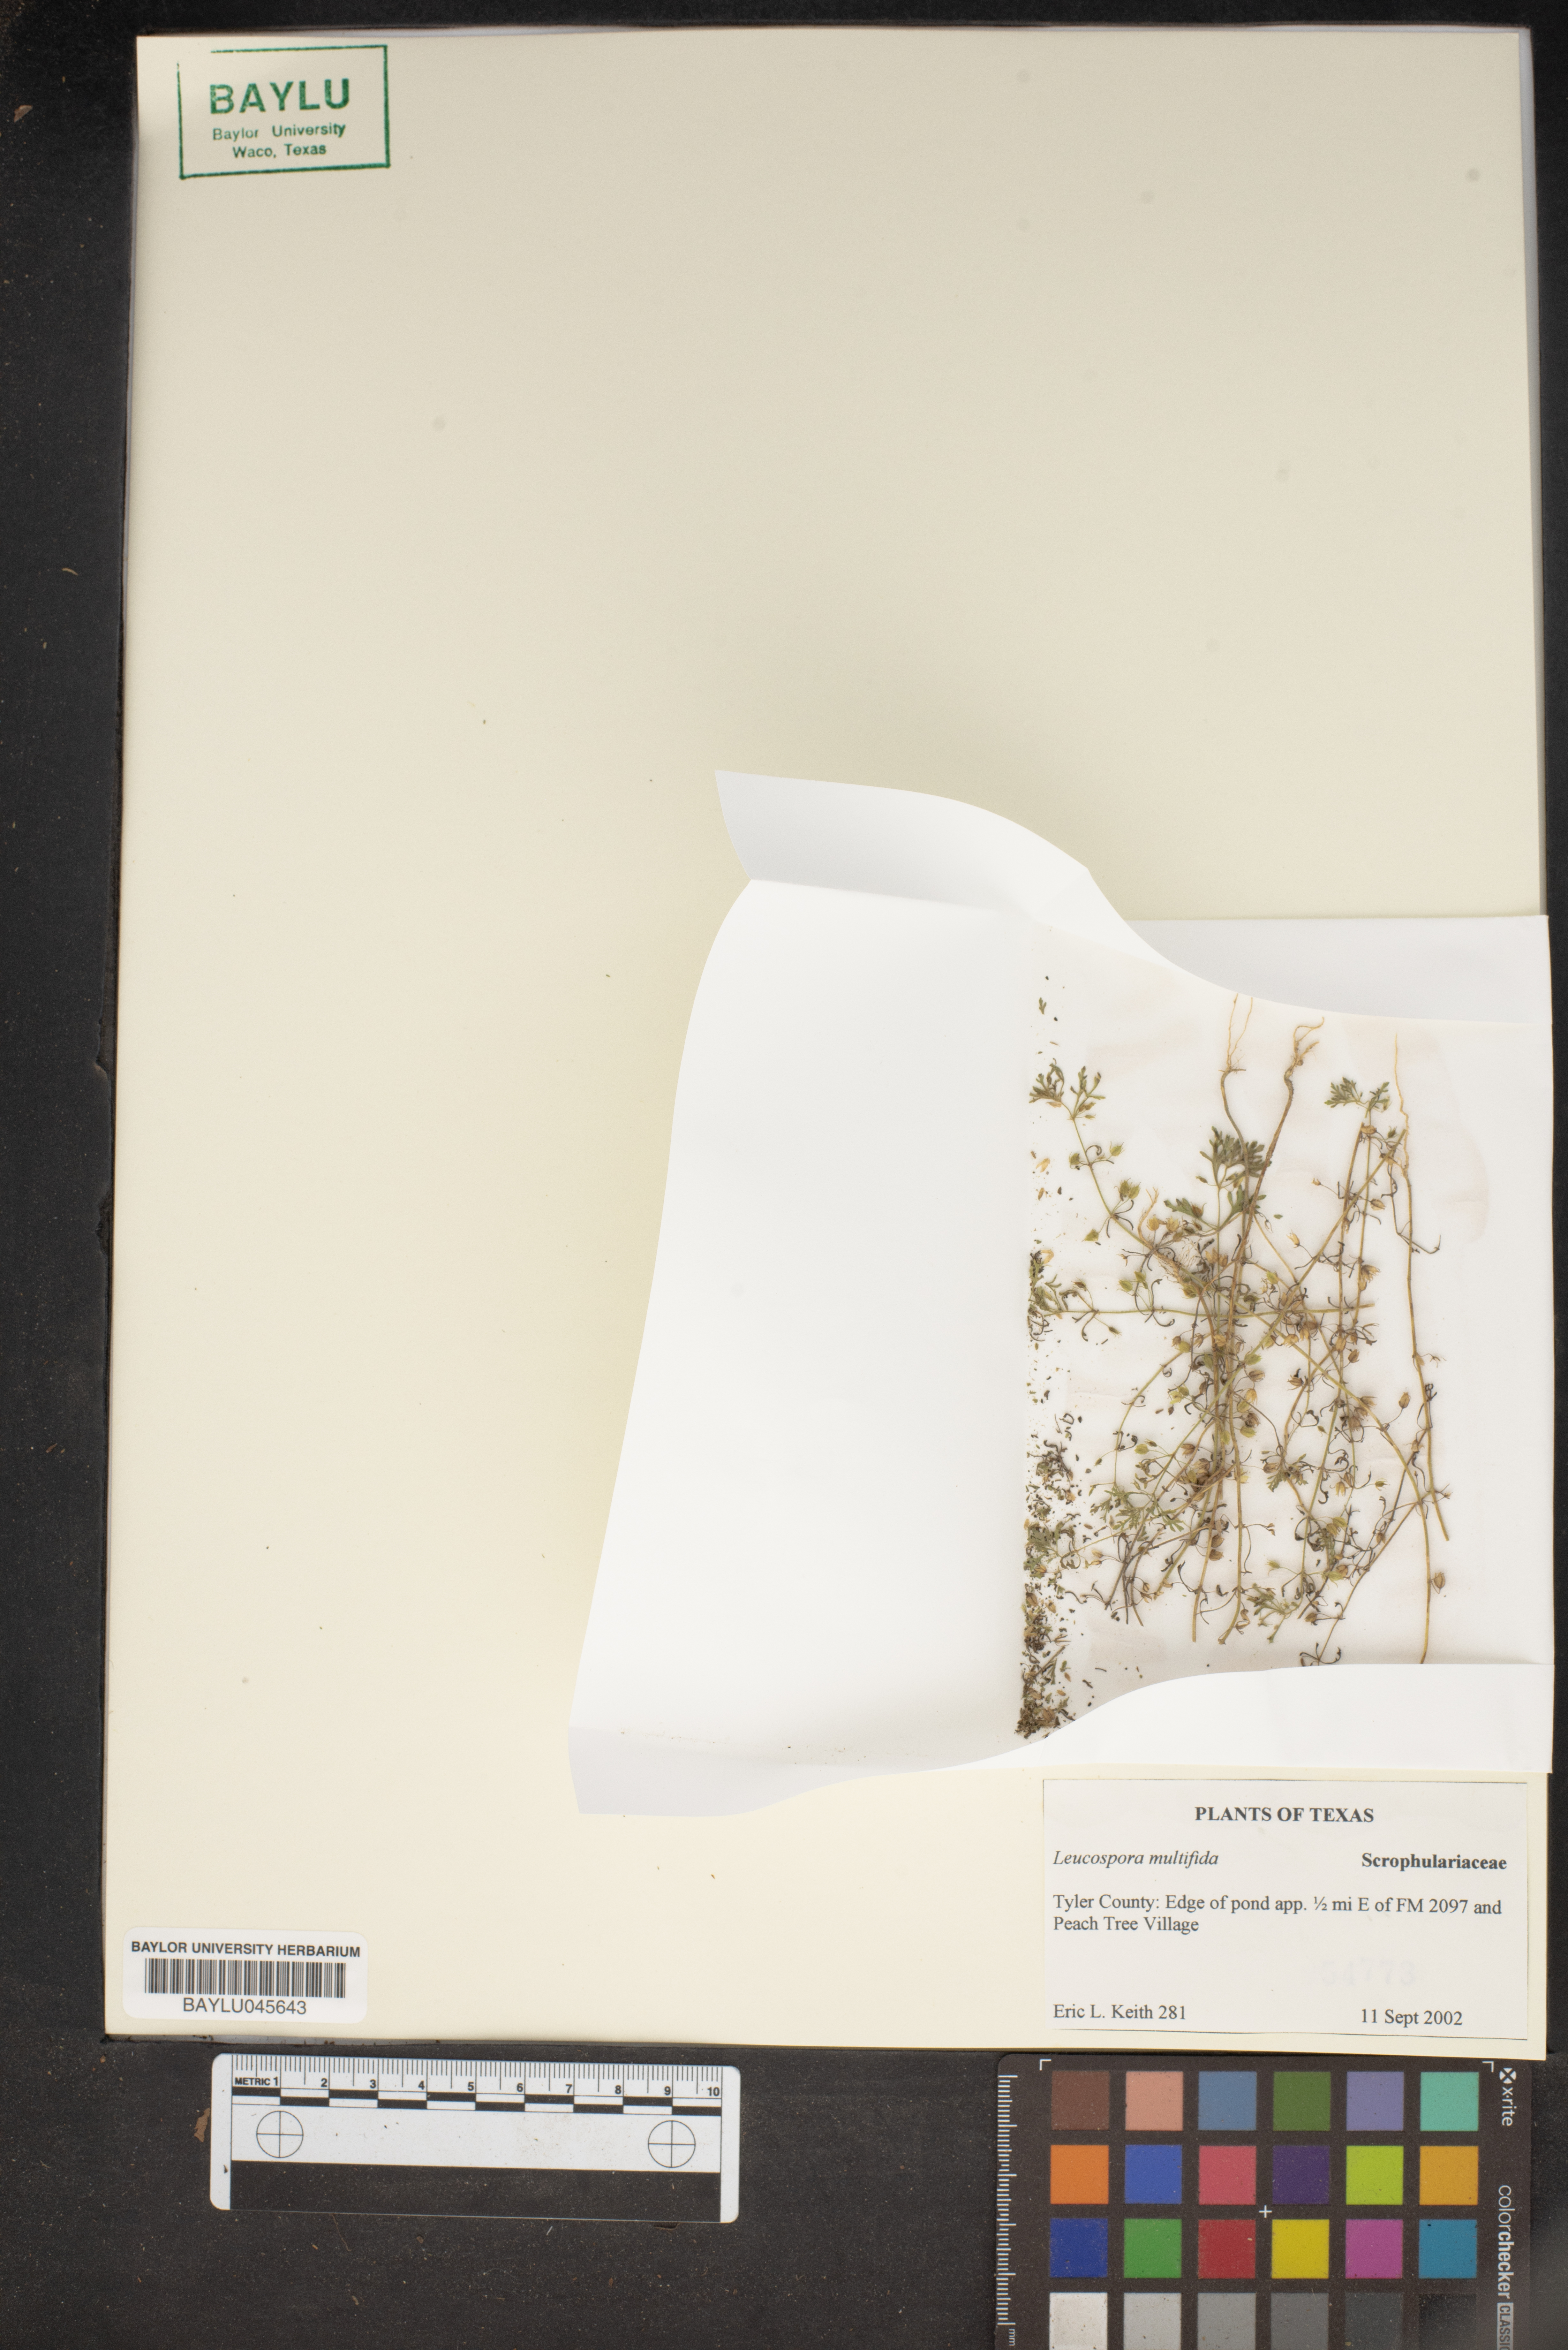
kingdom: Plantae
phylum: Tracheophyta
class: Magnoliopsida
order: Lamiales
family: Plantaginaceae
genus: Leucospora
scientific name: Leucospora multifida
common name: Narrow-leaf paleseed
